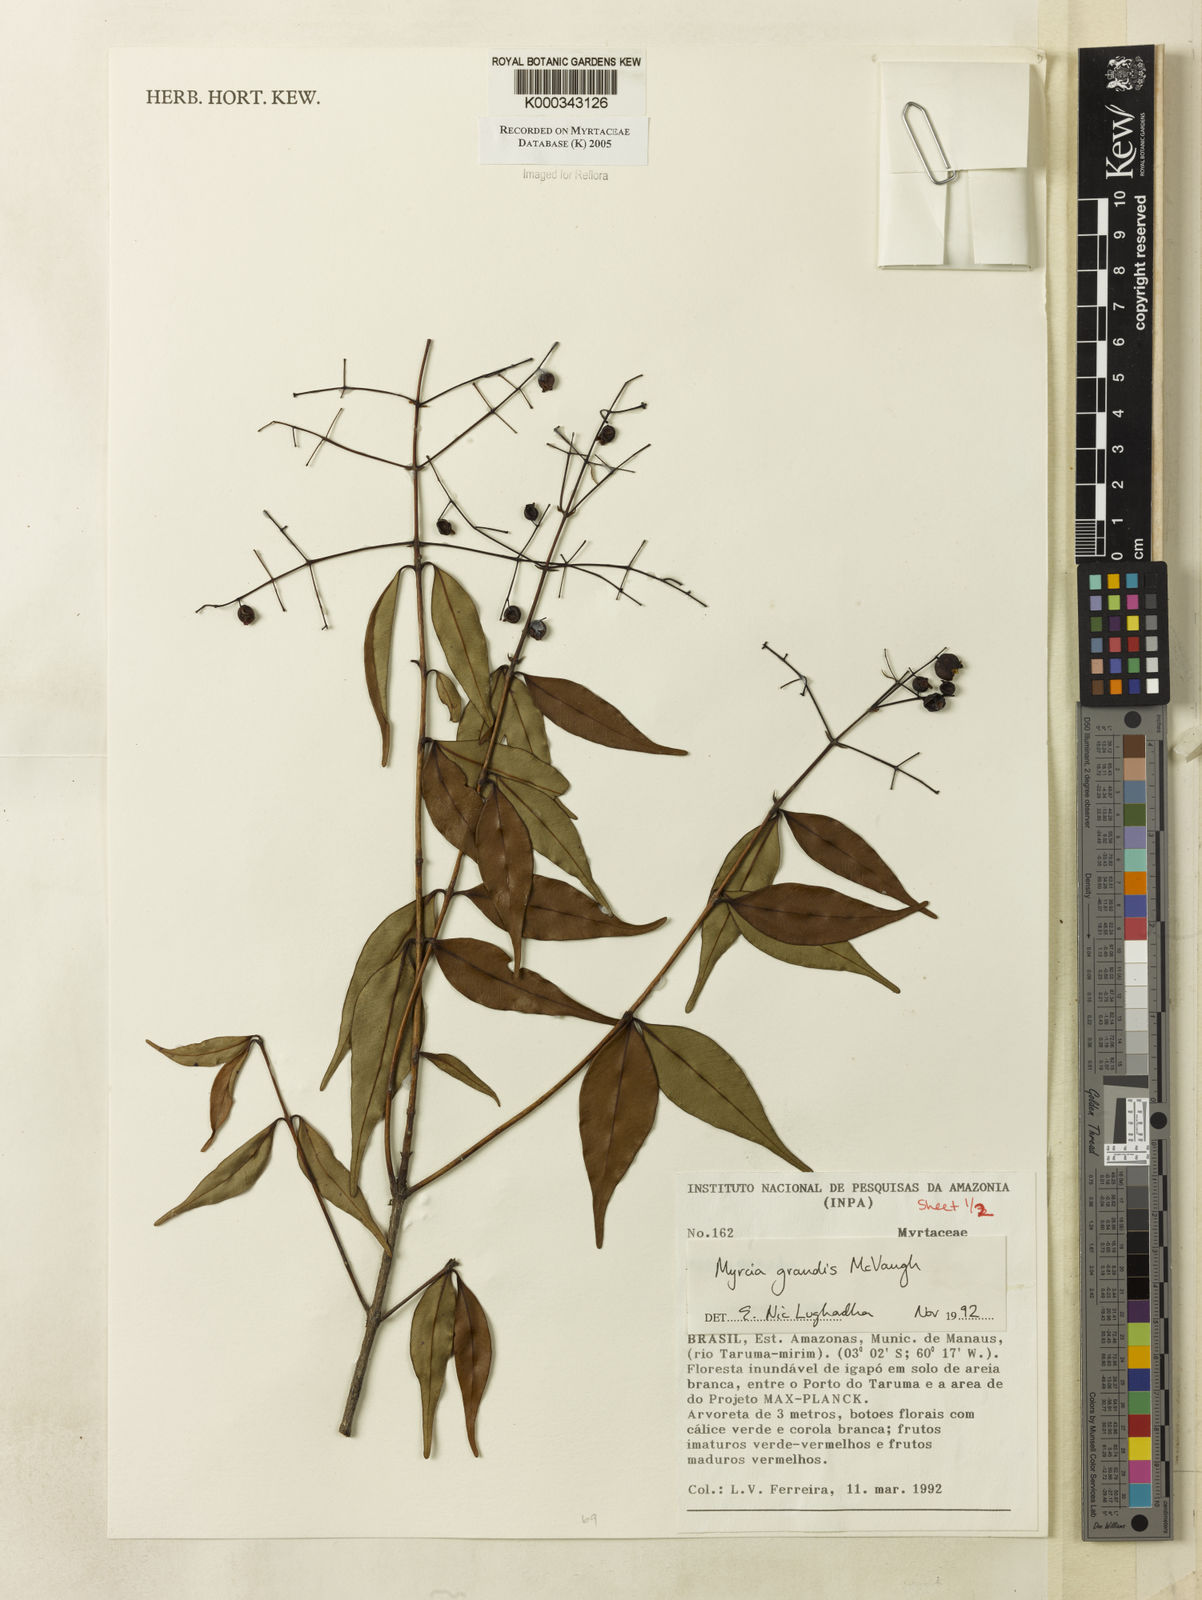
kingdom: Plantae
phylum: Tracheophyta
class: Magnoliopsida
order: Myrtales
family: Myrtaceae
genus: Myrcia
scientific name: Myrcia grandis
